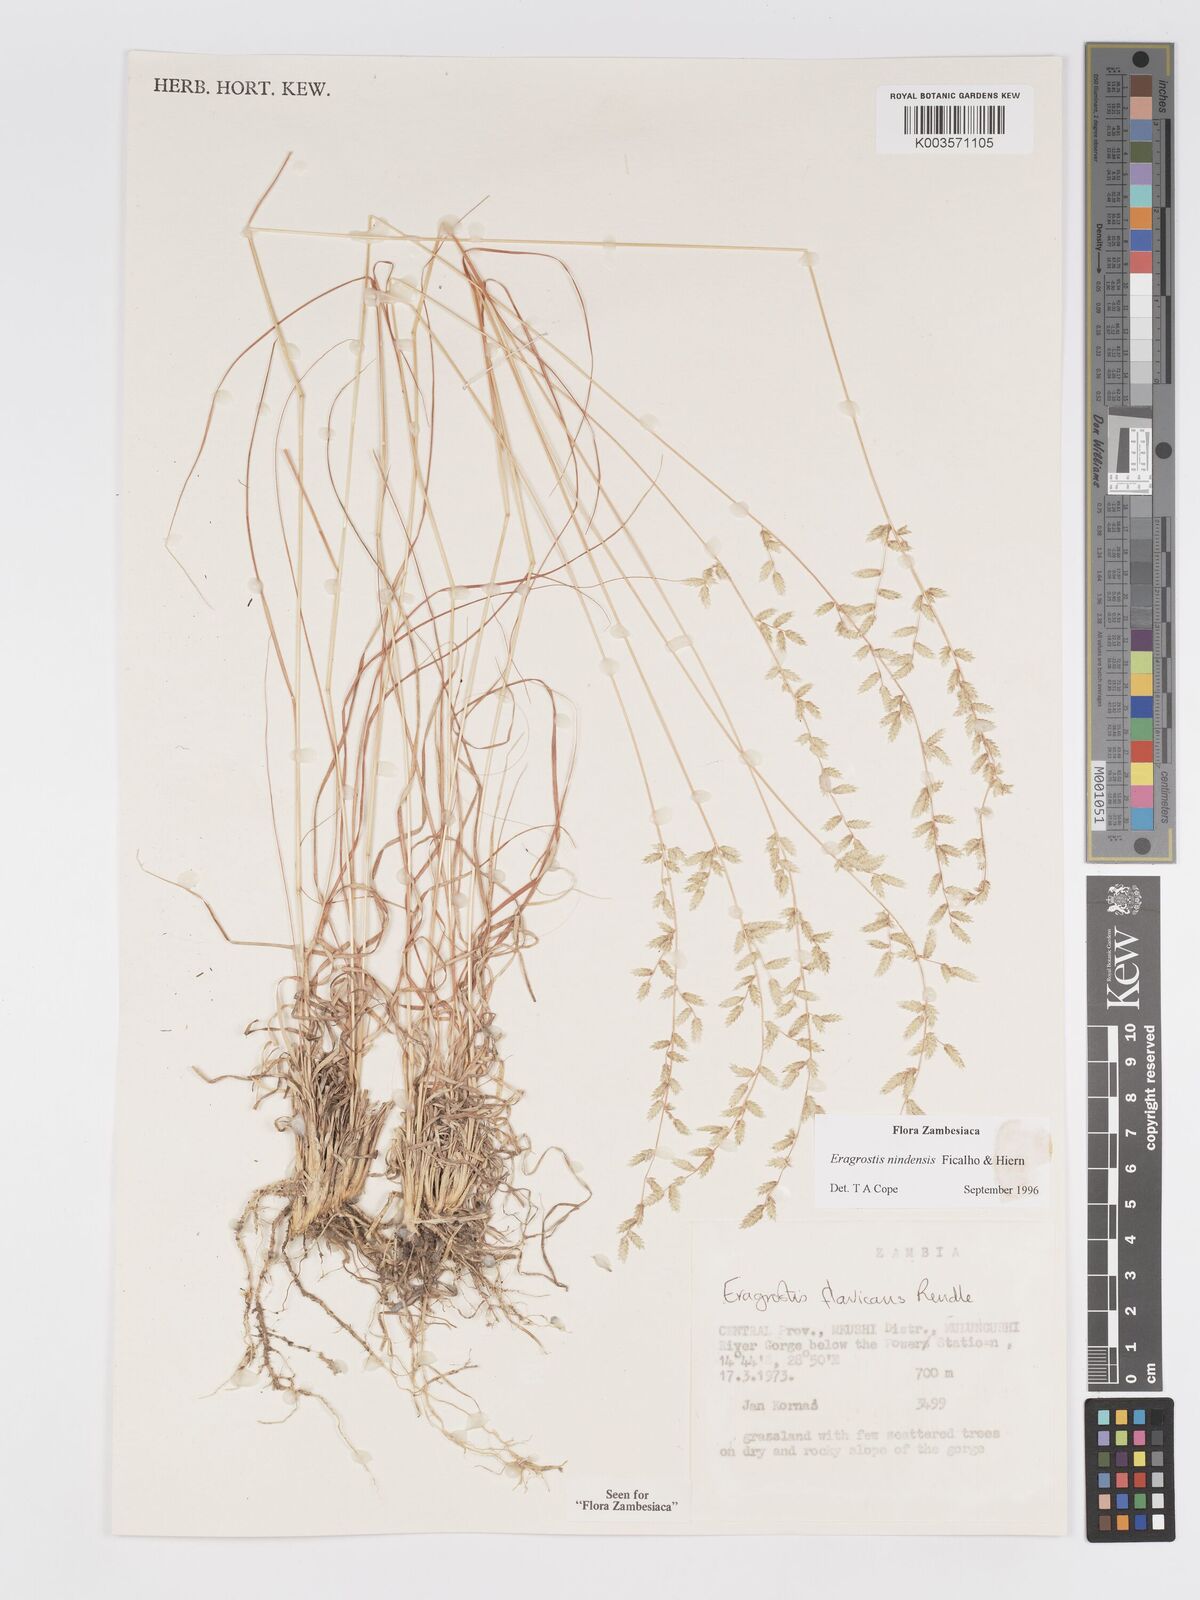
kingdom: Plantae
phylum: Tracheophyta
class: Liliopsida
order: Poales
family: Poaceae
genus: Eragrostis
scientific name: Eragrostis nindensis
